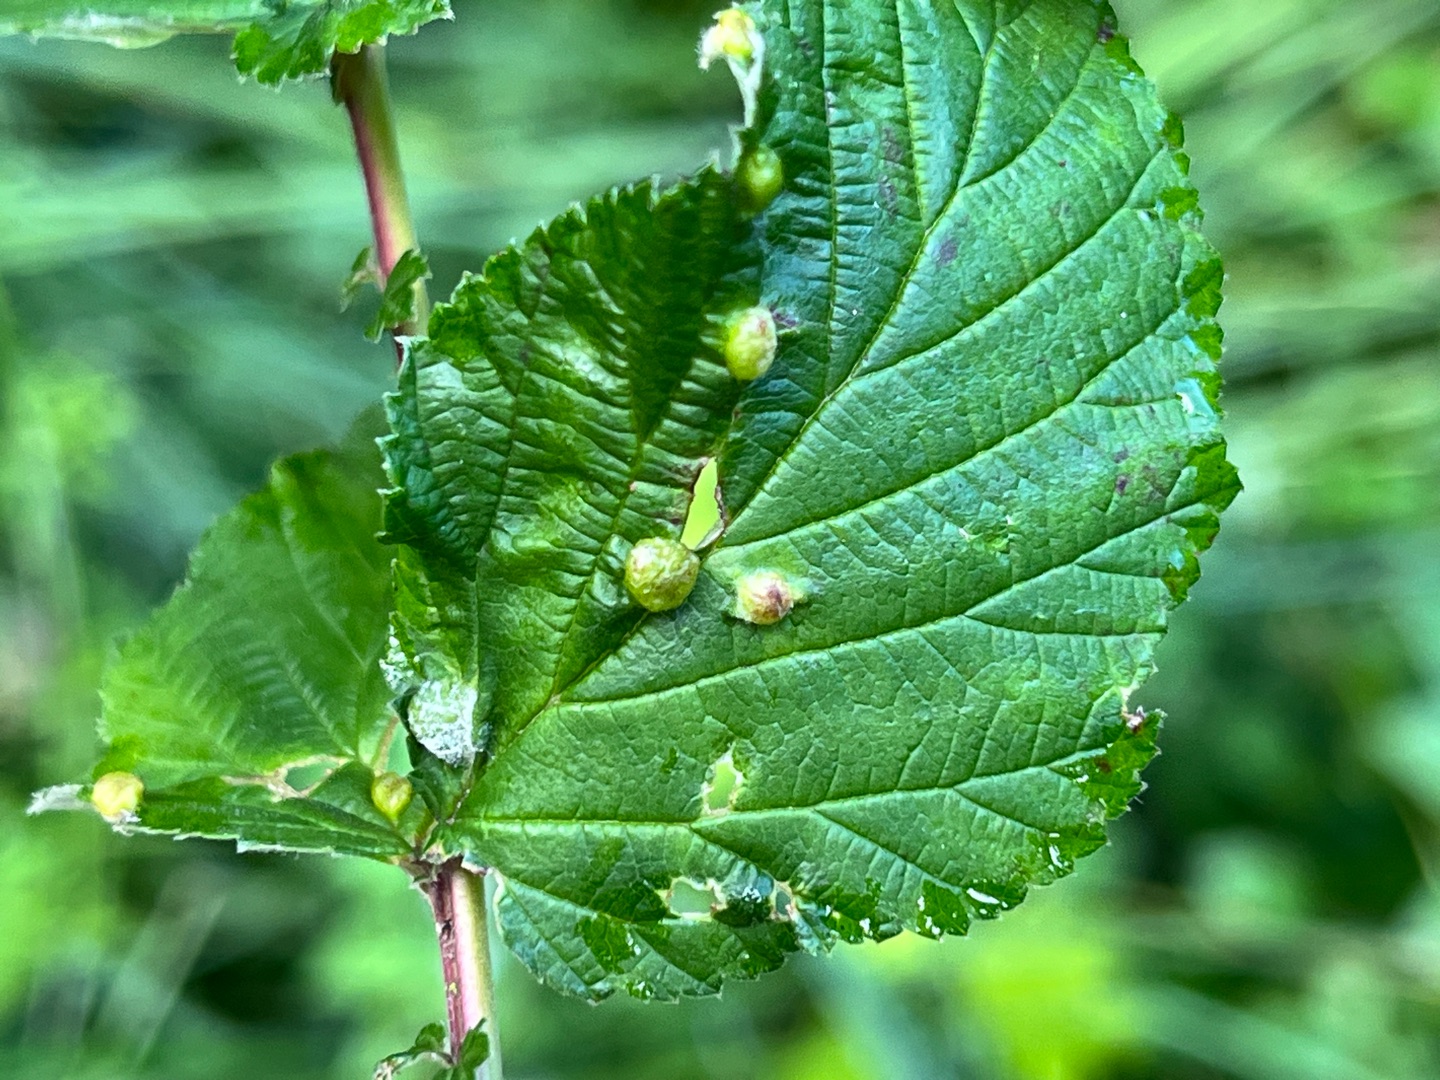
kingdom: Animalia
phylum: Arthropoda
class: Insecta
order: Diptera
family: Cecidomyiidae
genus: Dasineura
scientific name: Dasineura ulmaria
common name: Mjødurtgalmyg
